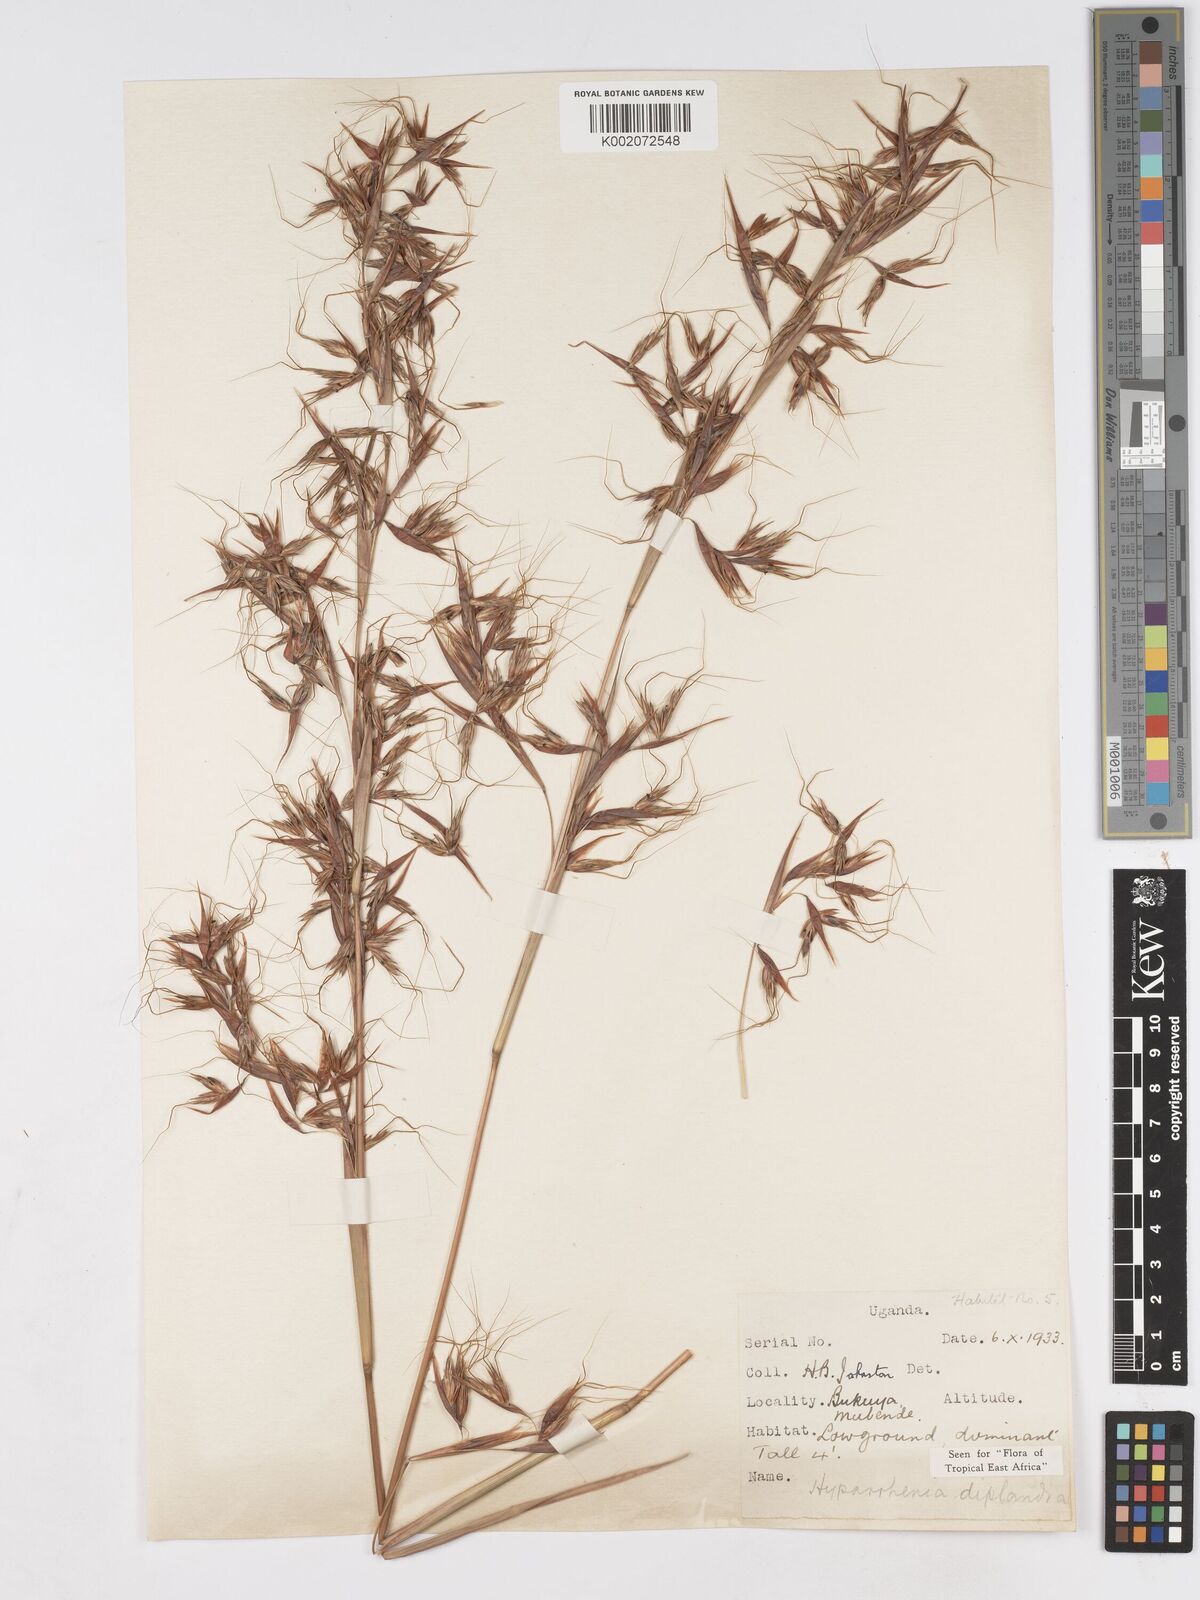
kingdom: Plantae
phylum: Tracheophyta
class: Liliopsida
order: Poales
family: Poaceae
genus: Hyparrhenia
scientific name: Hyparrhenia diplandra
